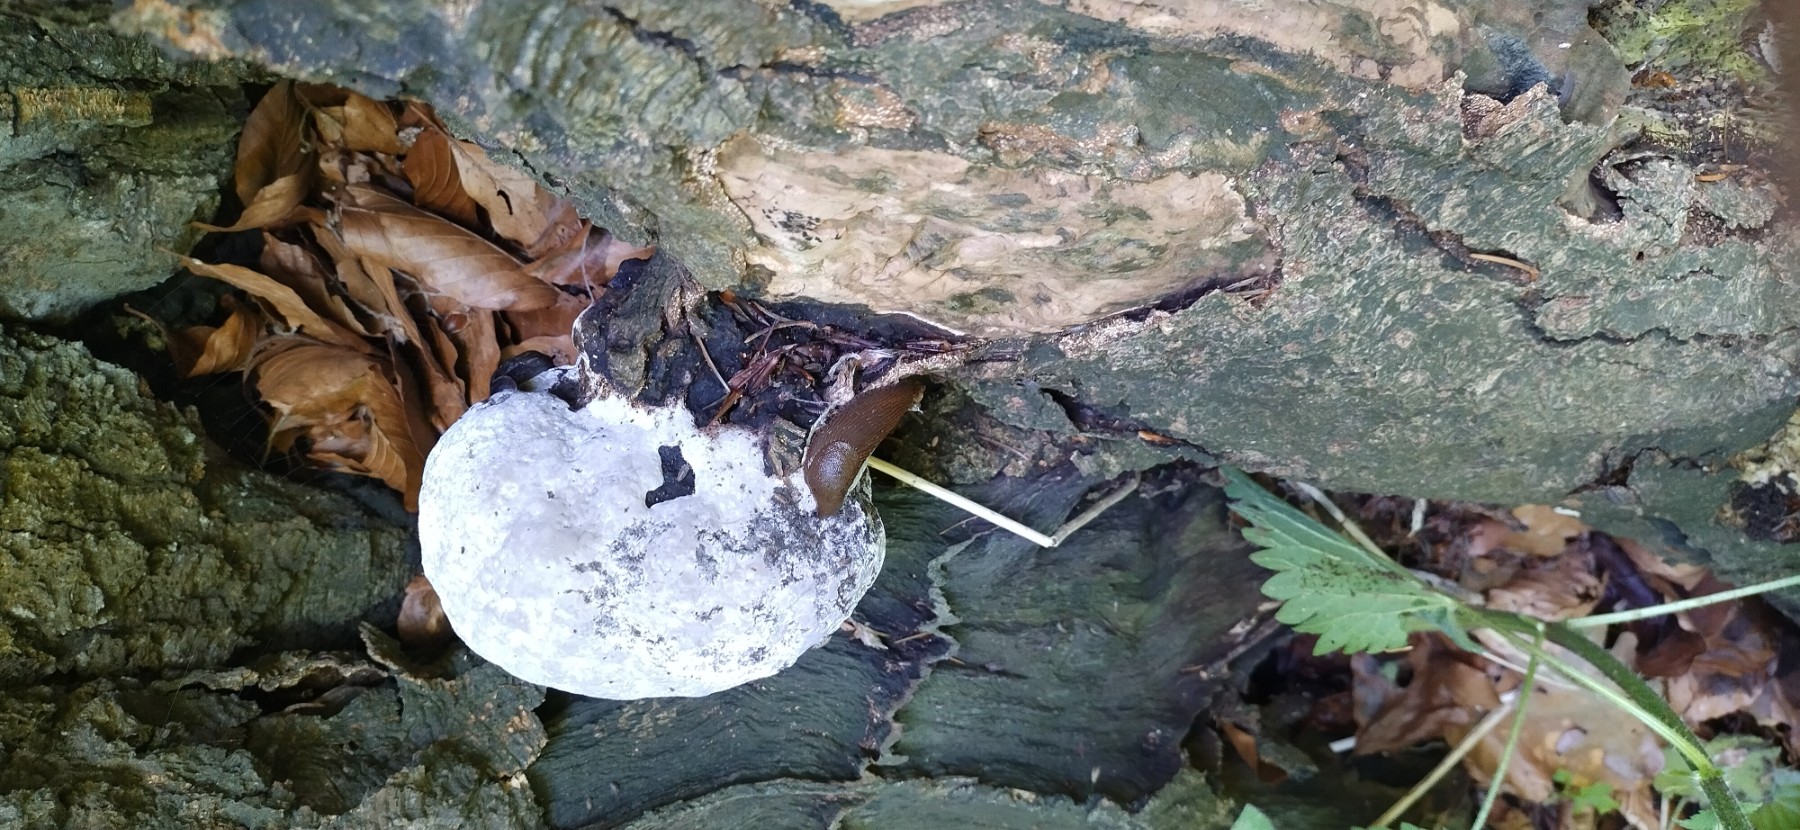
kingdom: Fungi
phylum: Basidiomycota
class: Agaricomycetes
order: Polyporales
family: Polyporaceae
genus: Fomes
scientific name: Fomes fomentarius
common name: tøndersvamp
